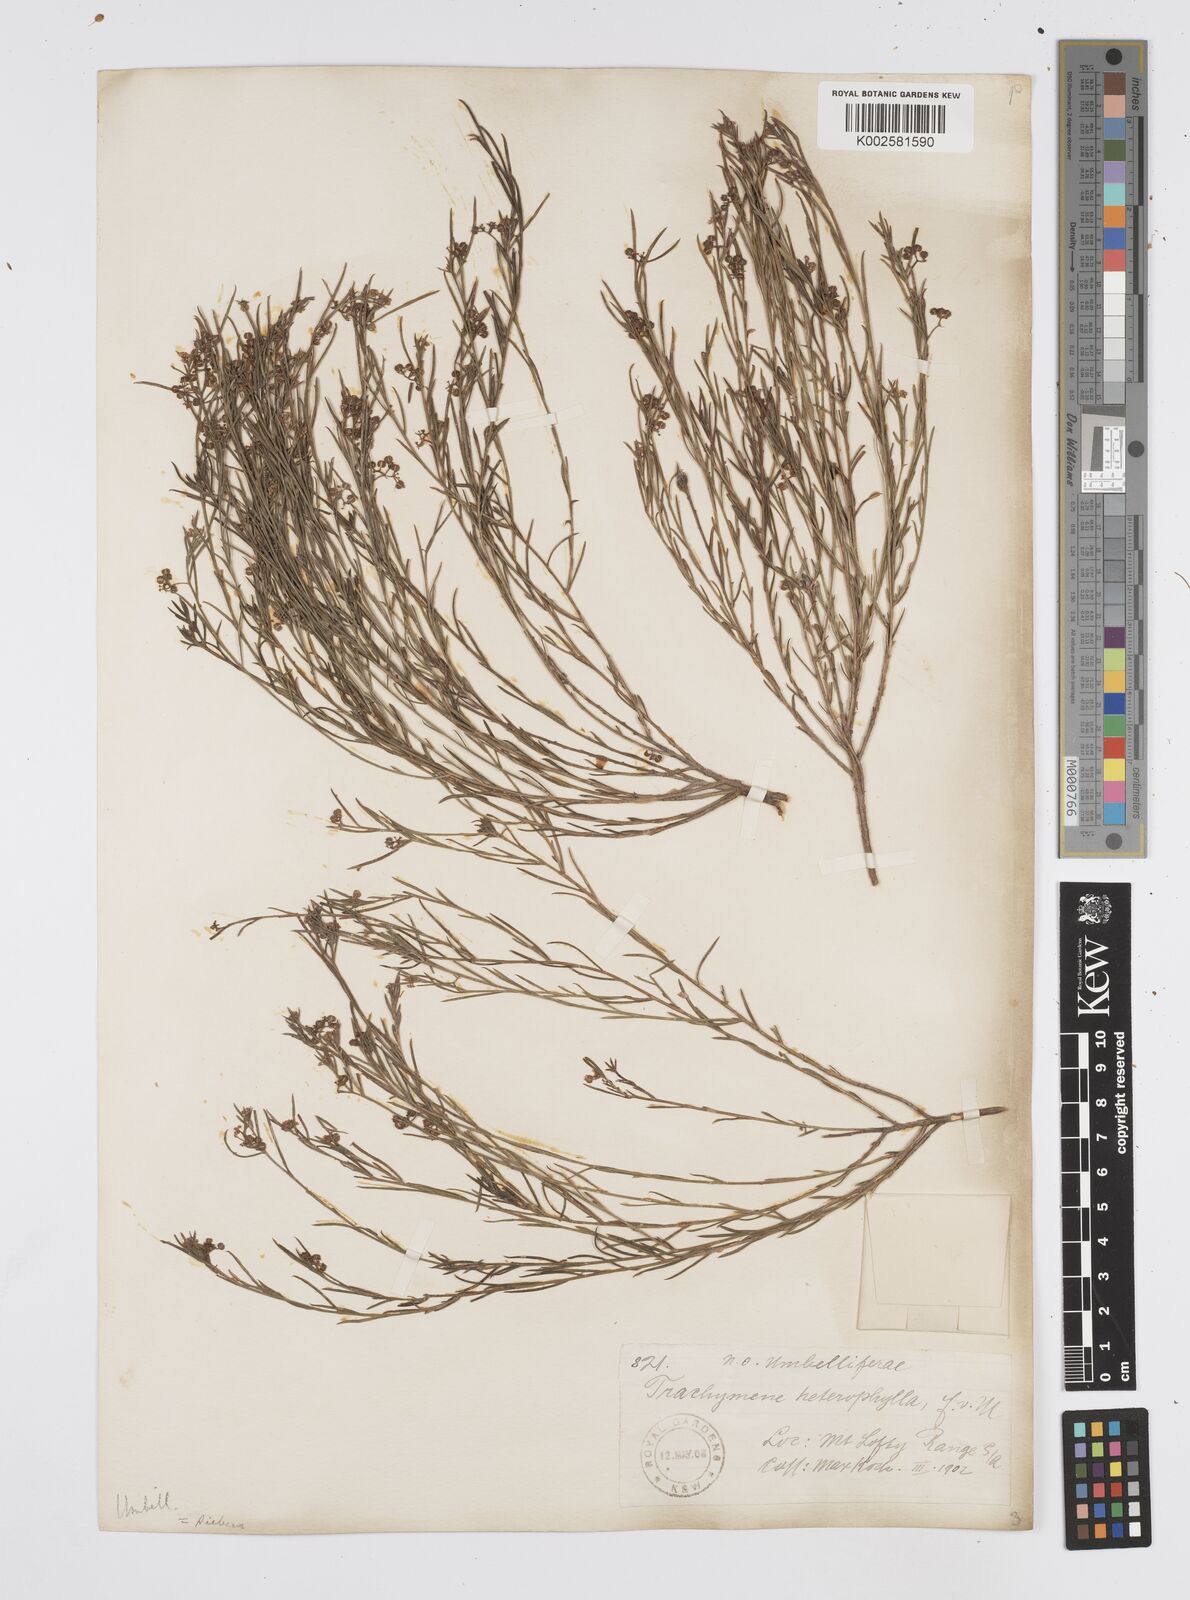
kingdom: Plantae
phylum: Tracheophyta
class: Magnoliopsida
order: Apiales
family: Apiaceae
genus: Platysace
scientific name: Platysace heterophylla
